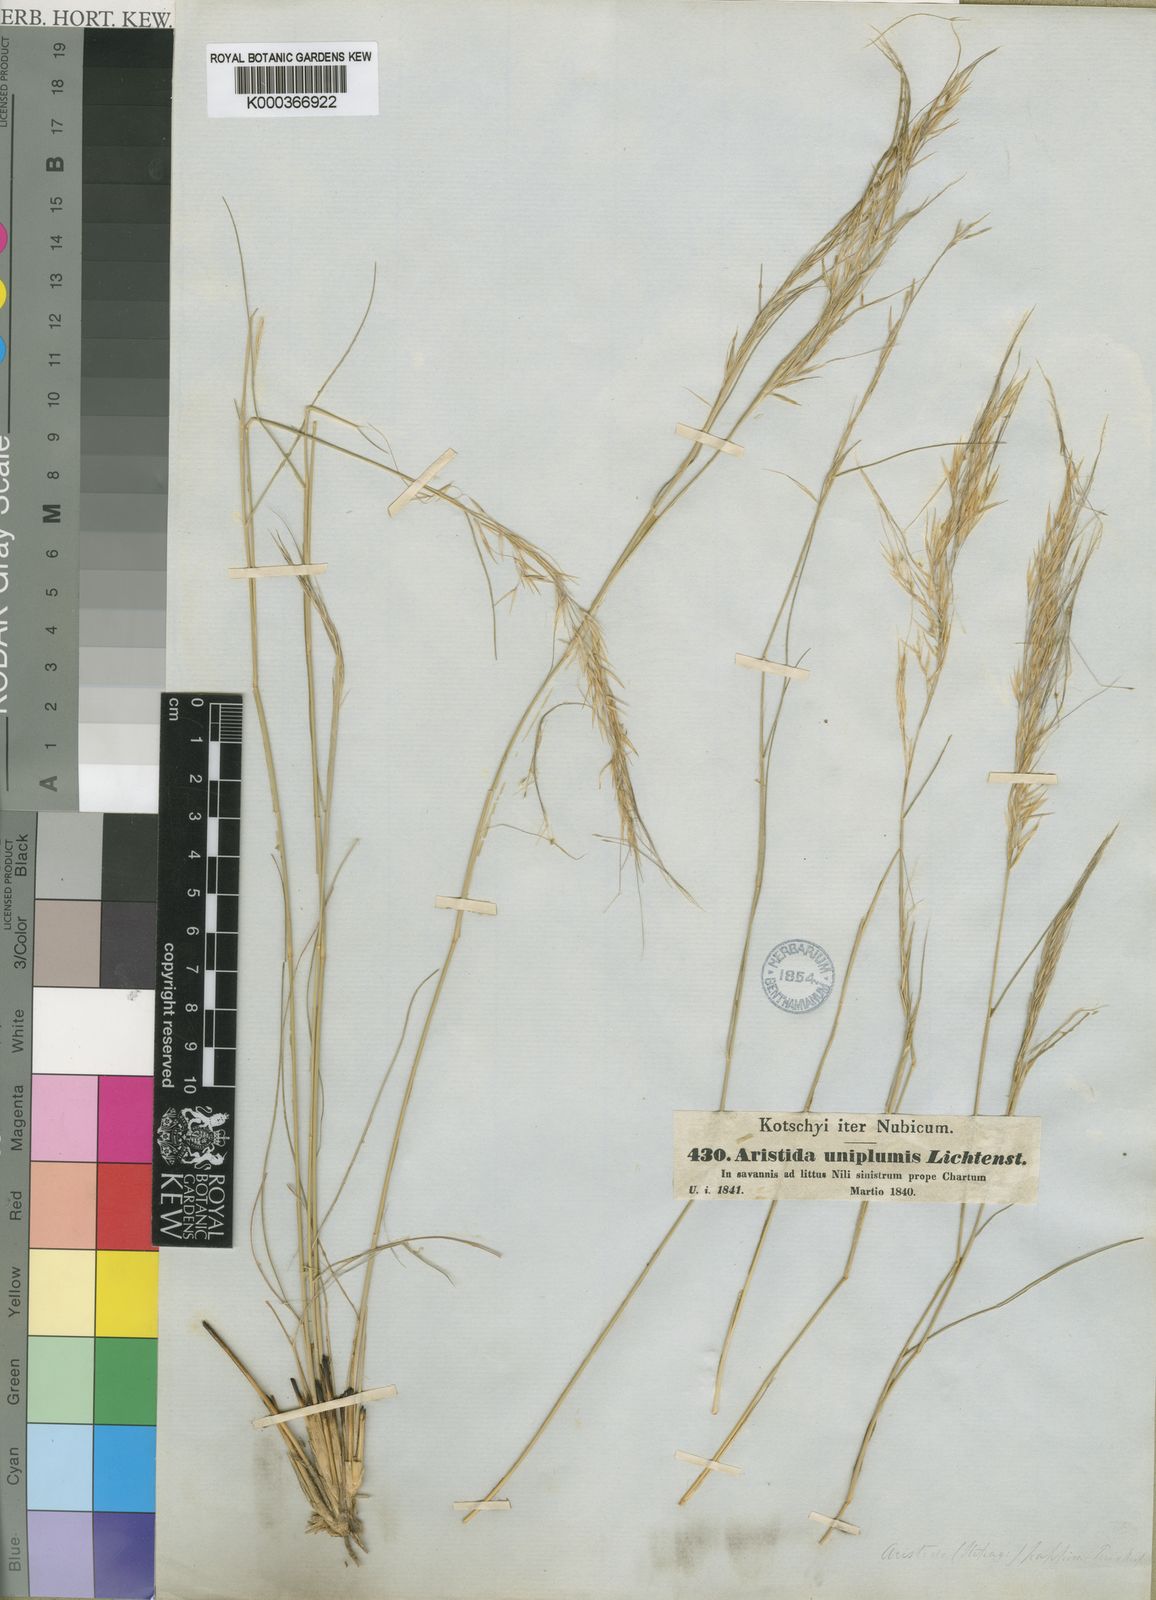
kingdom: Plantae
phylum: Tracheophyta
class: Liliopsida
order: Poales
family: Poaceae
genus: Stipagrostis
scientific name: Stipagrostis uniplumis
